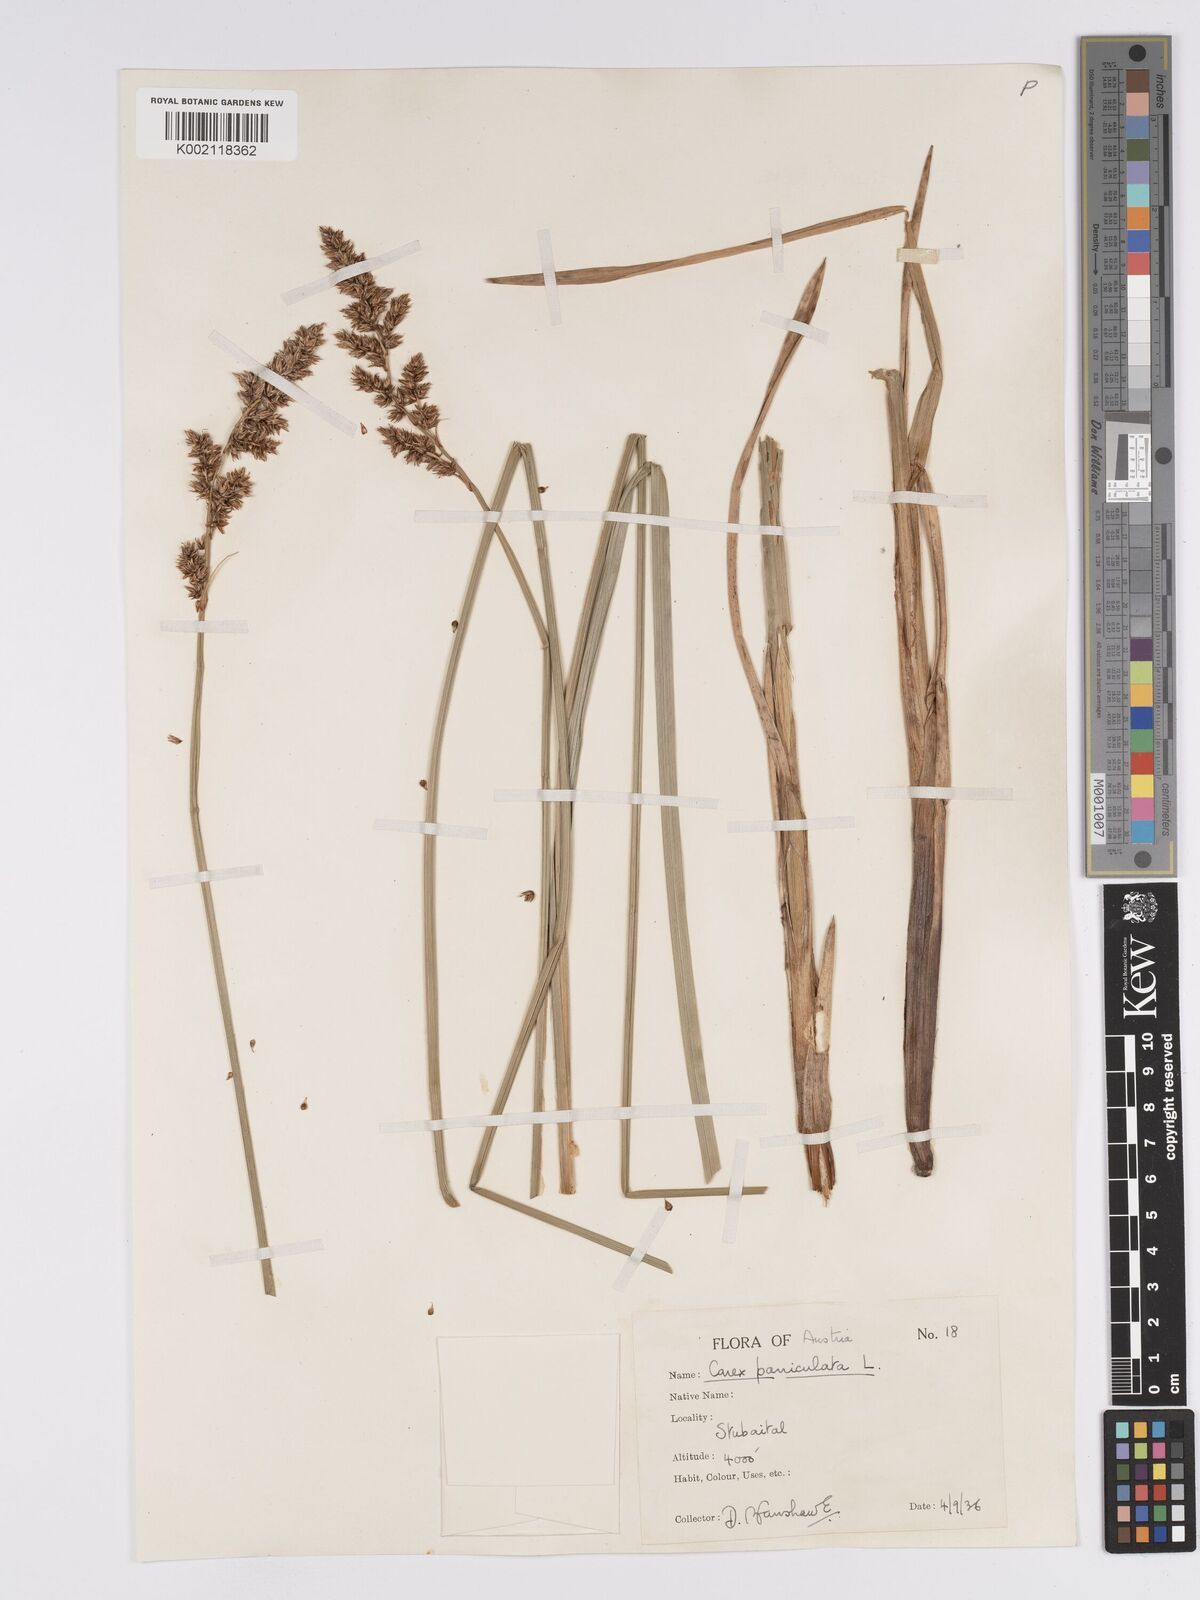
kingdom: Plantae
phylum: Tracheophyta
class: Liliopsida
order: Poales
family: Cyperaceae
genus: Carex
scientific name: Carex paniculata
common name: Greater tussock-sedge
